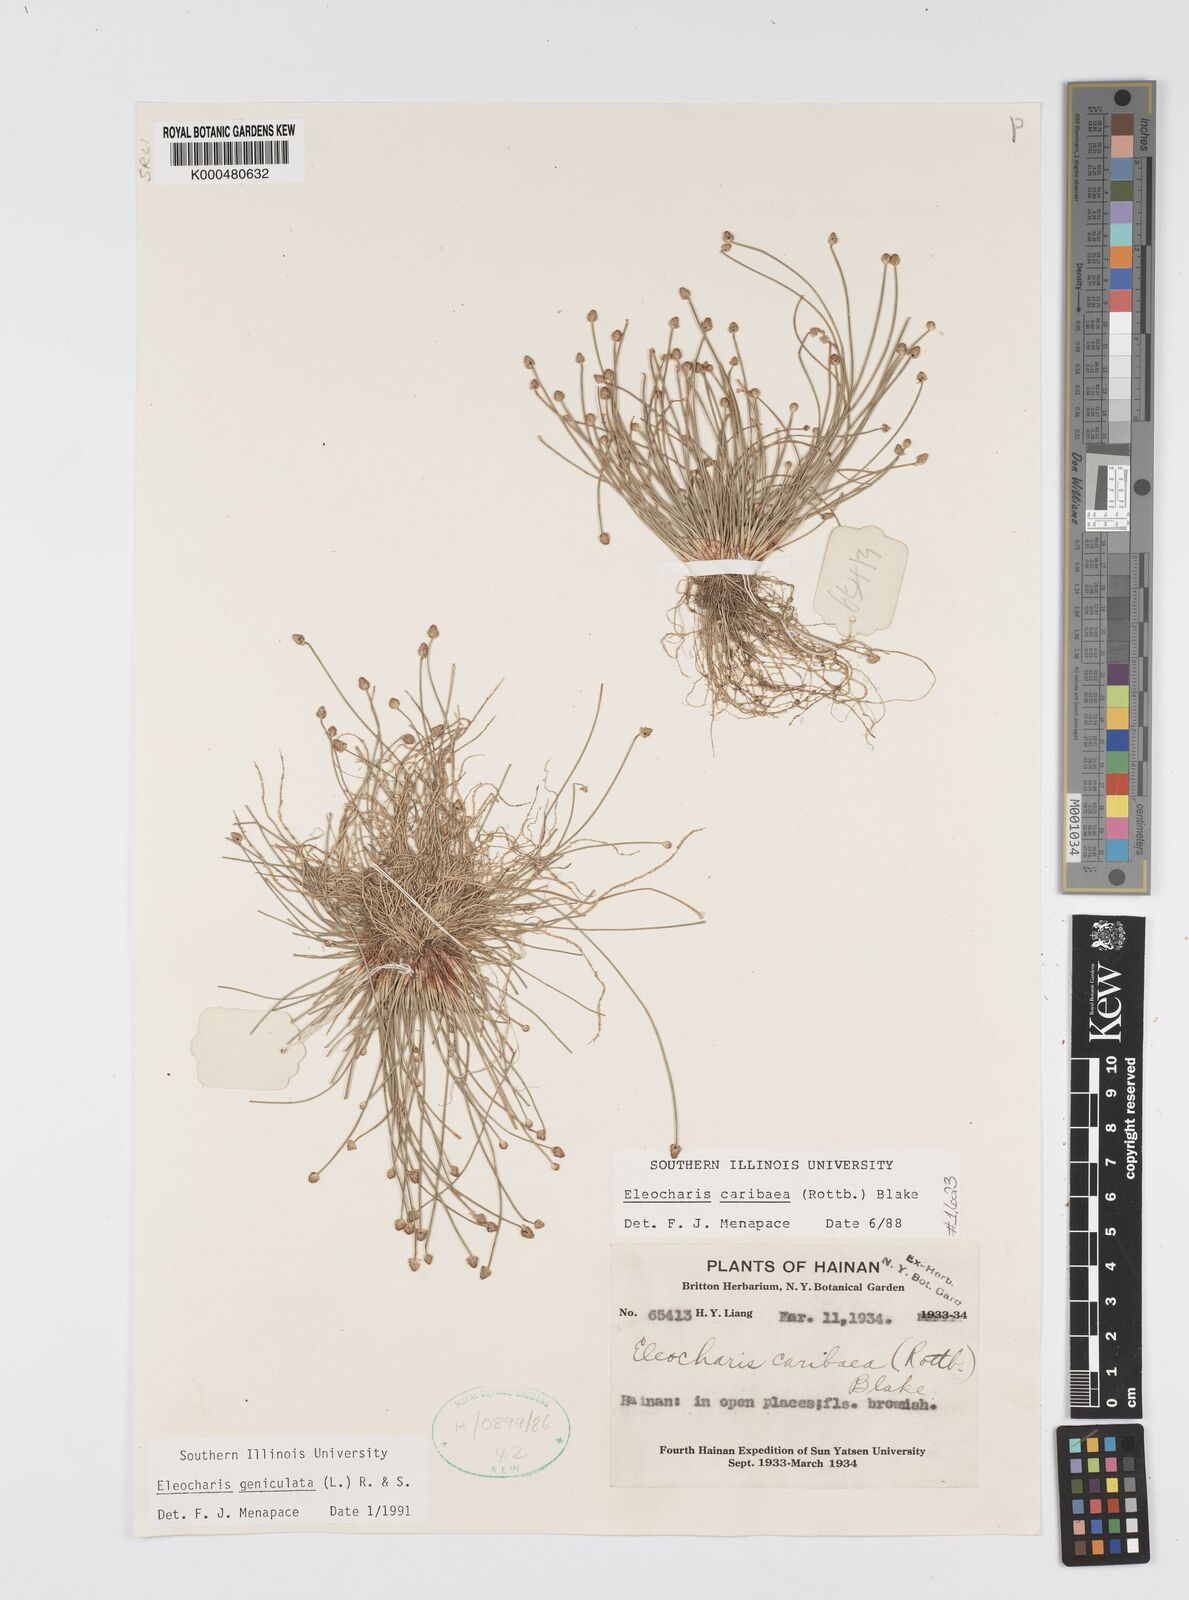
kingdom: Plantae
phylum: Tracheophyta
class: Liliopsida
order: Poales
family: Cyperaceae
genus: Eleocharis
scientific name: Eleocharis geniculata
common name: Canada spikesedge
